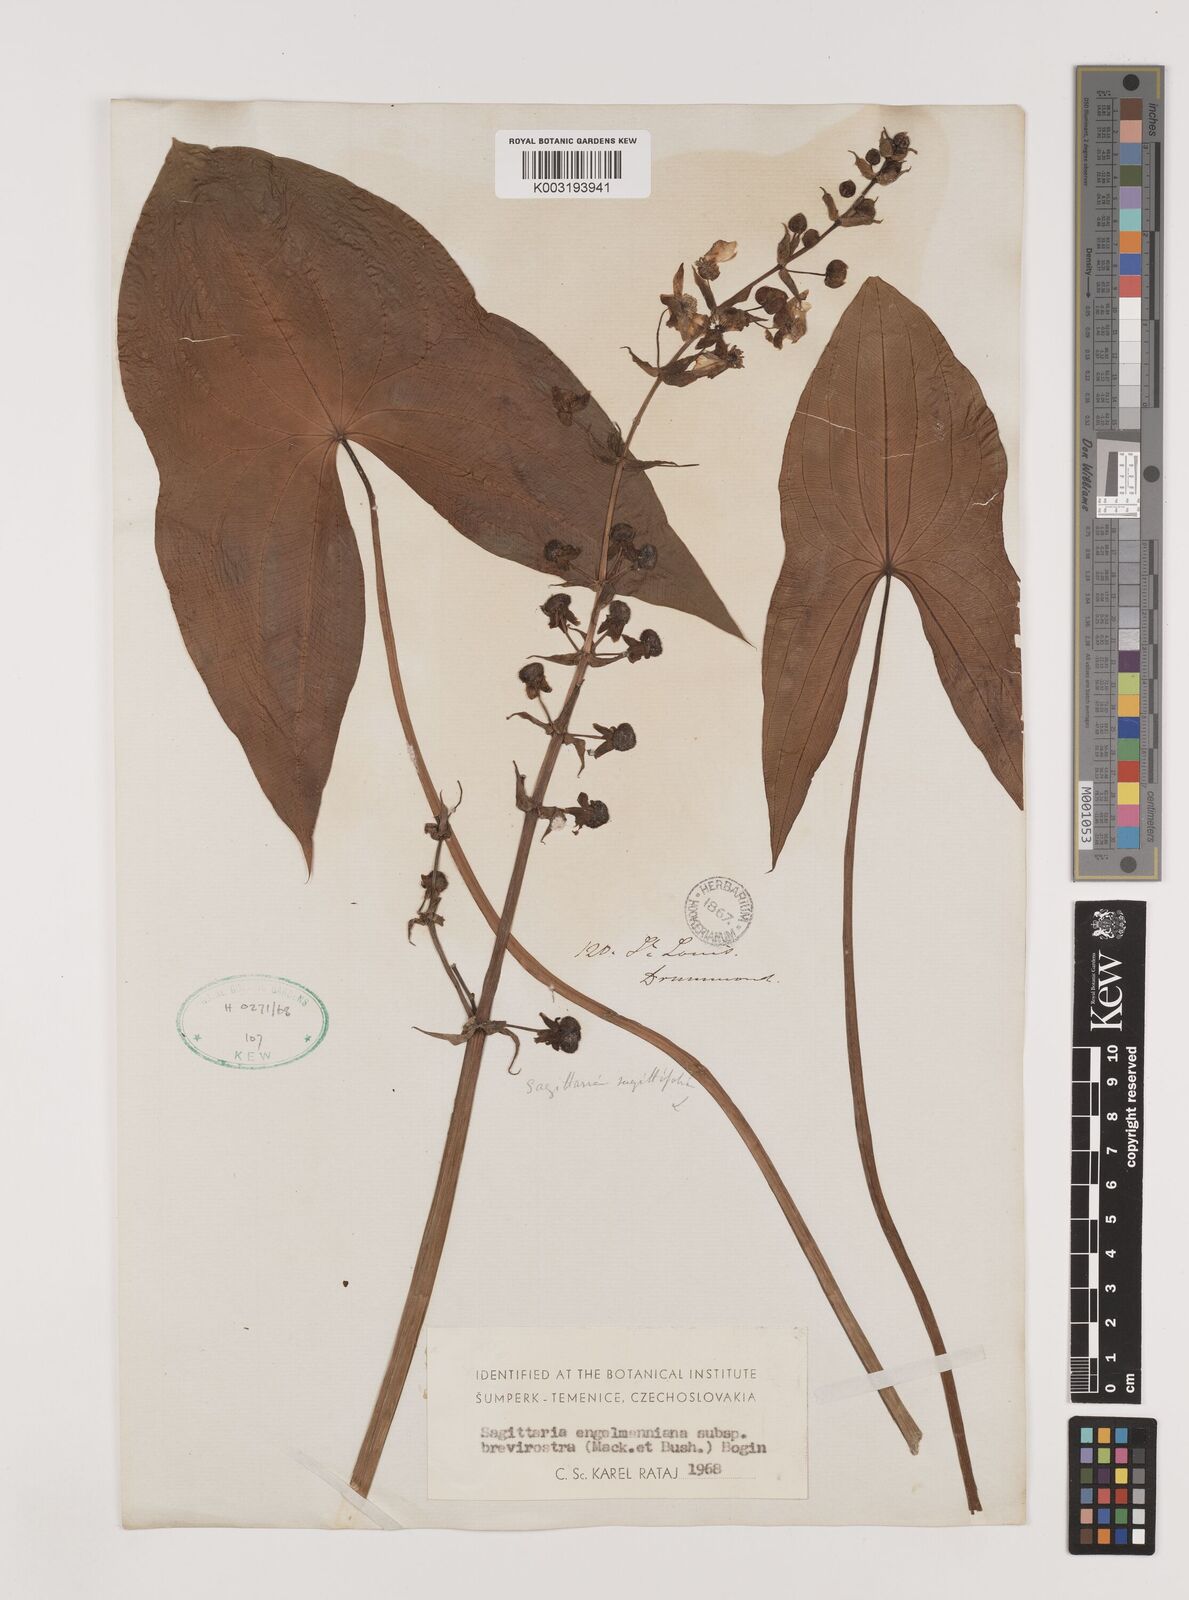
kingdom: Plantae
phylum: Tracheophyta
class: Liliopsida
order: Alismatales
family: Alismataceae
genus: Sagittaria
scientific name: Sagittaria brevirostra
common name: Midwestern arrowhead
